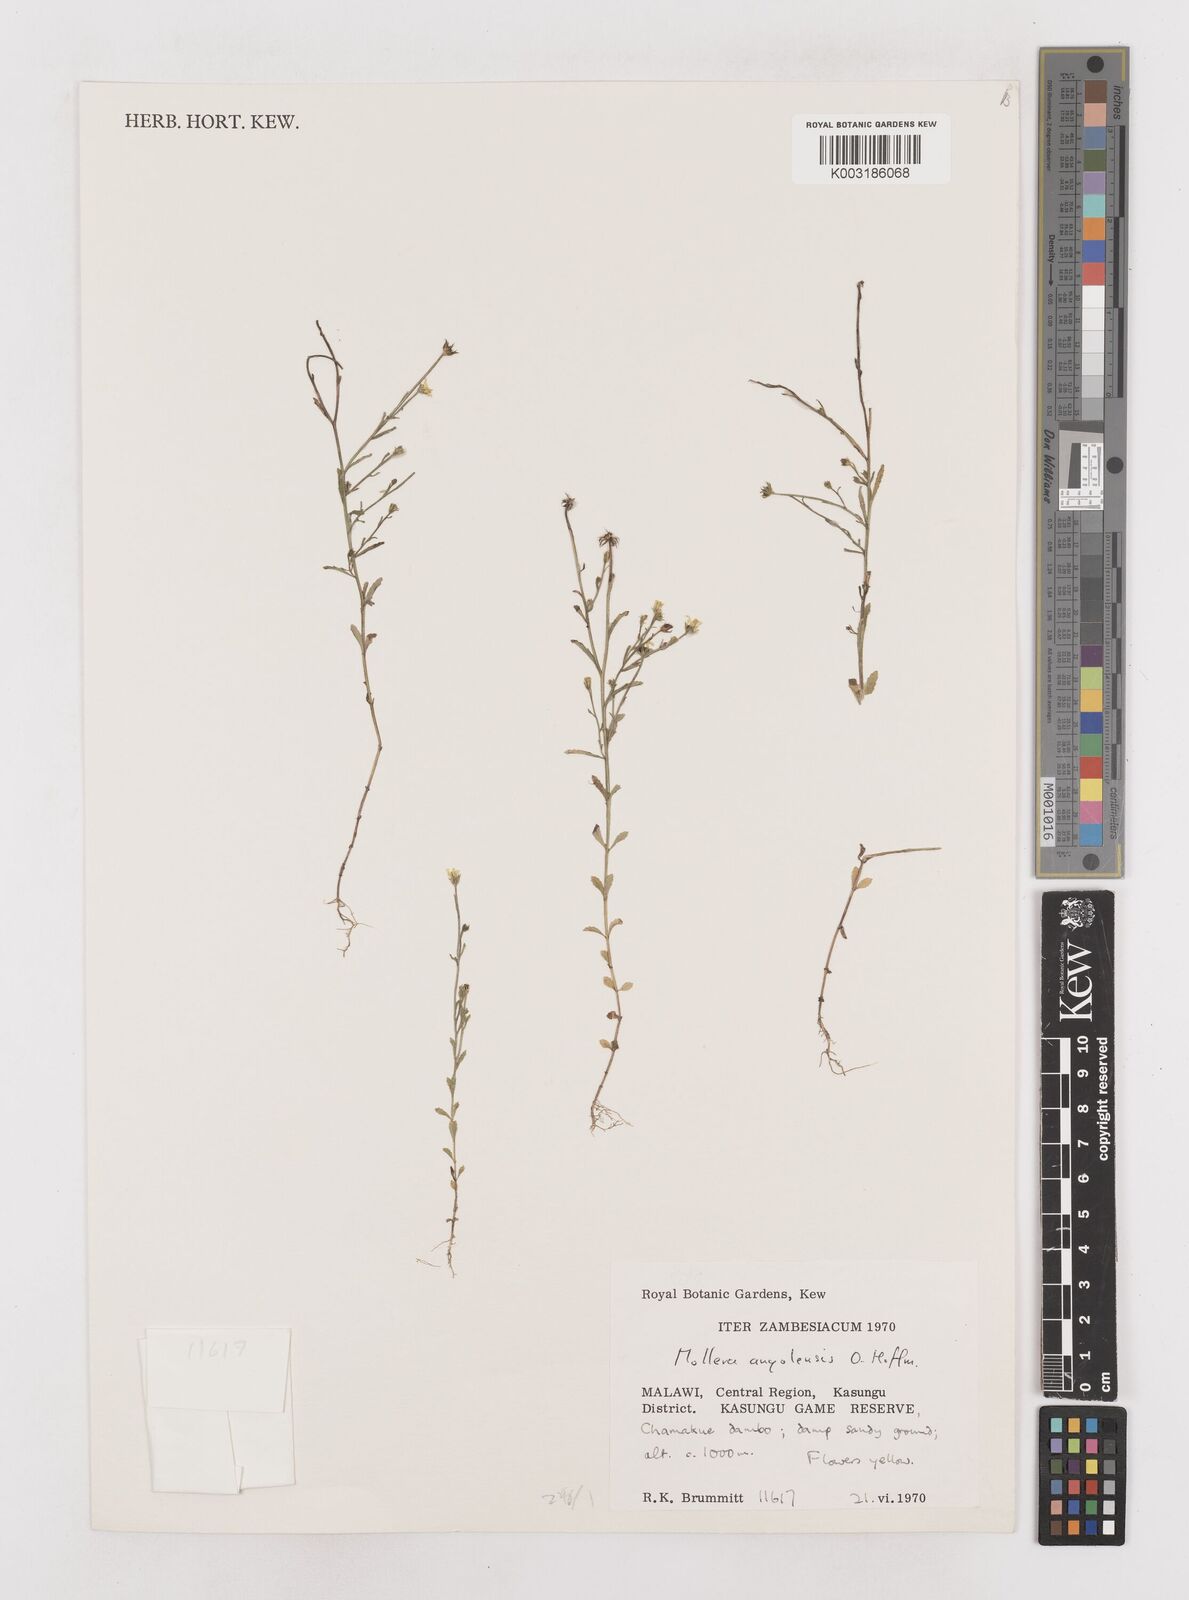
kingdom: Plantae
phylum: Tracheophyta
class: Magnoliopsida
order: Asterales
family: Asteraceae
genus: Calostephane
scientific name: Calostephane angolensis
